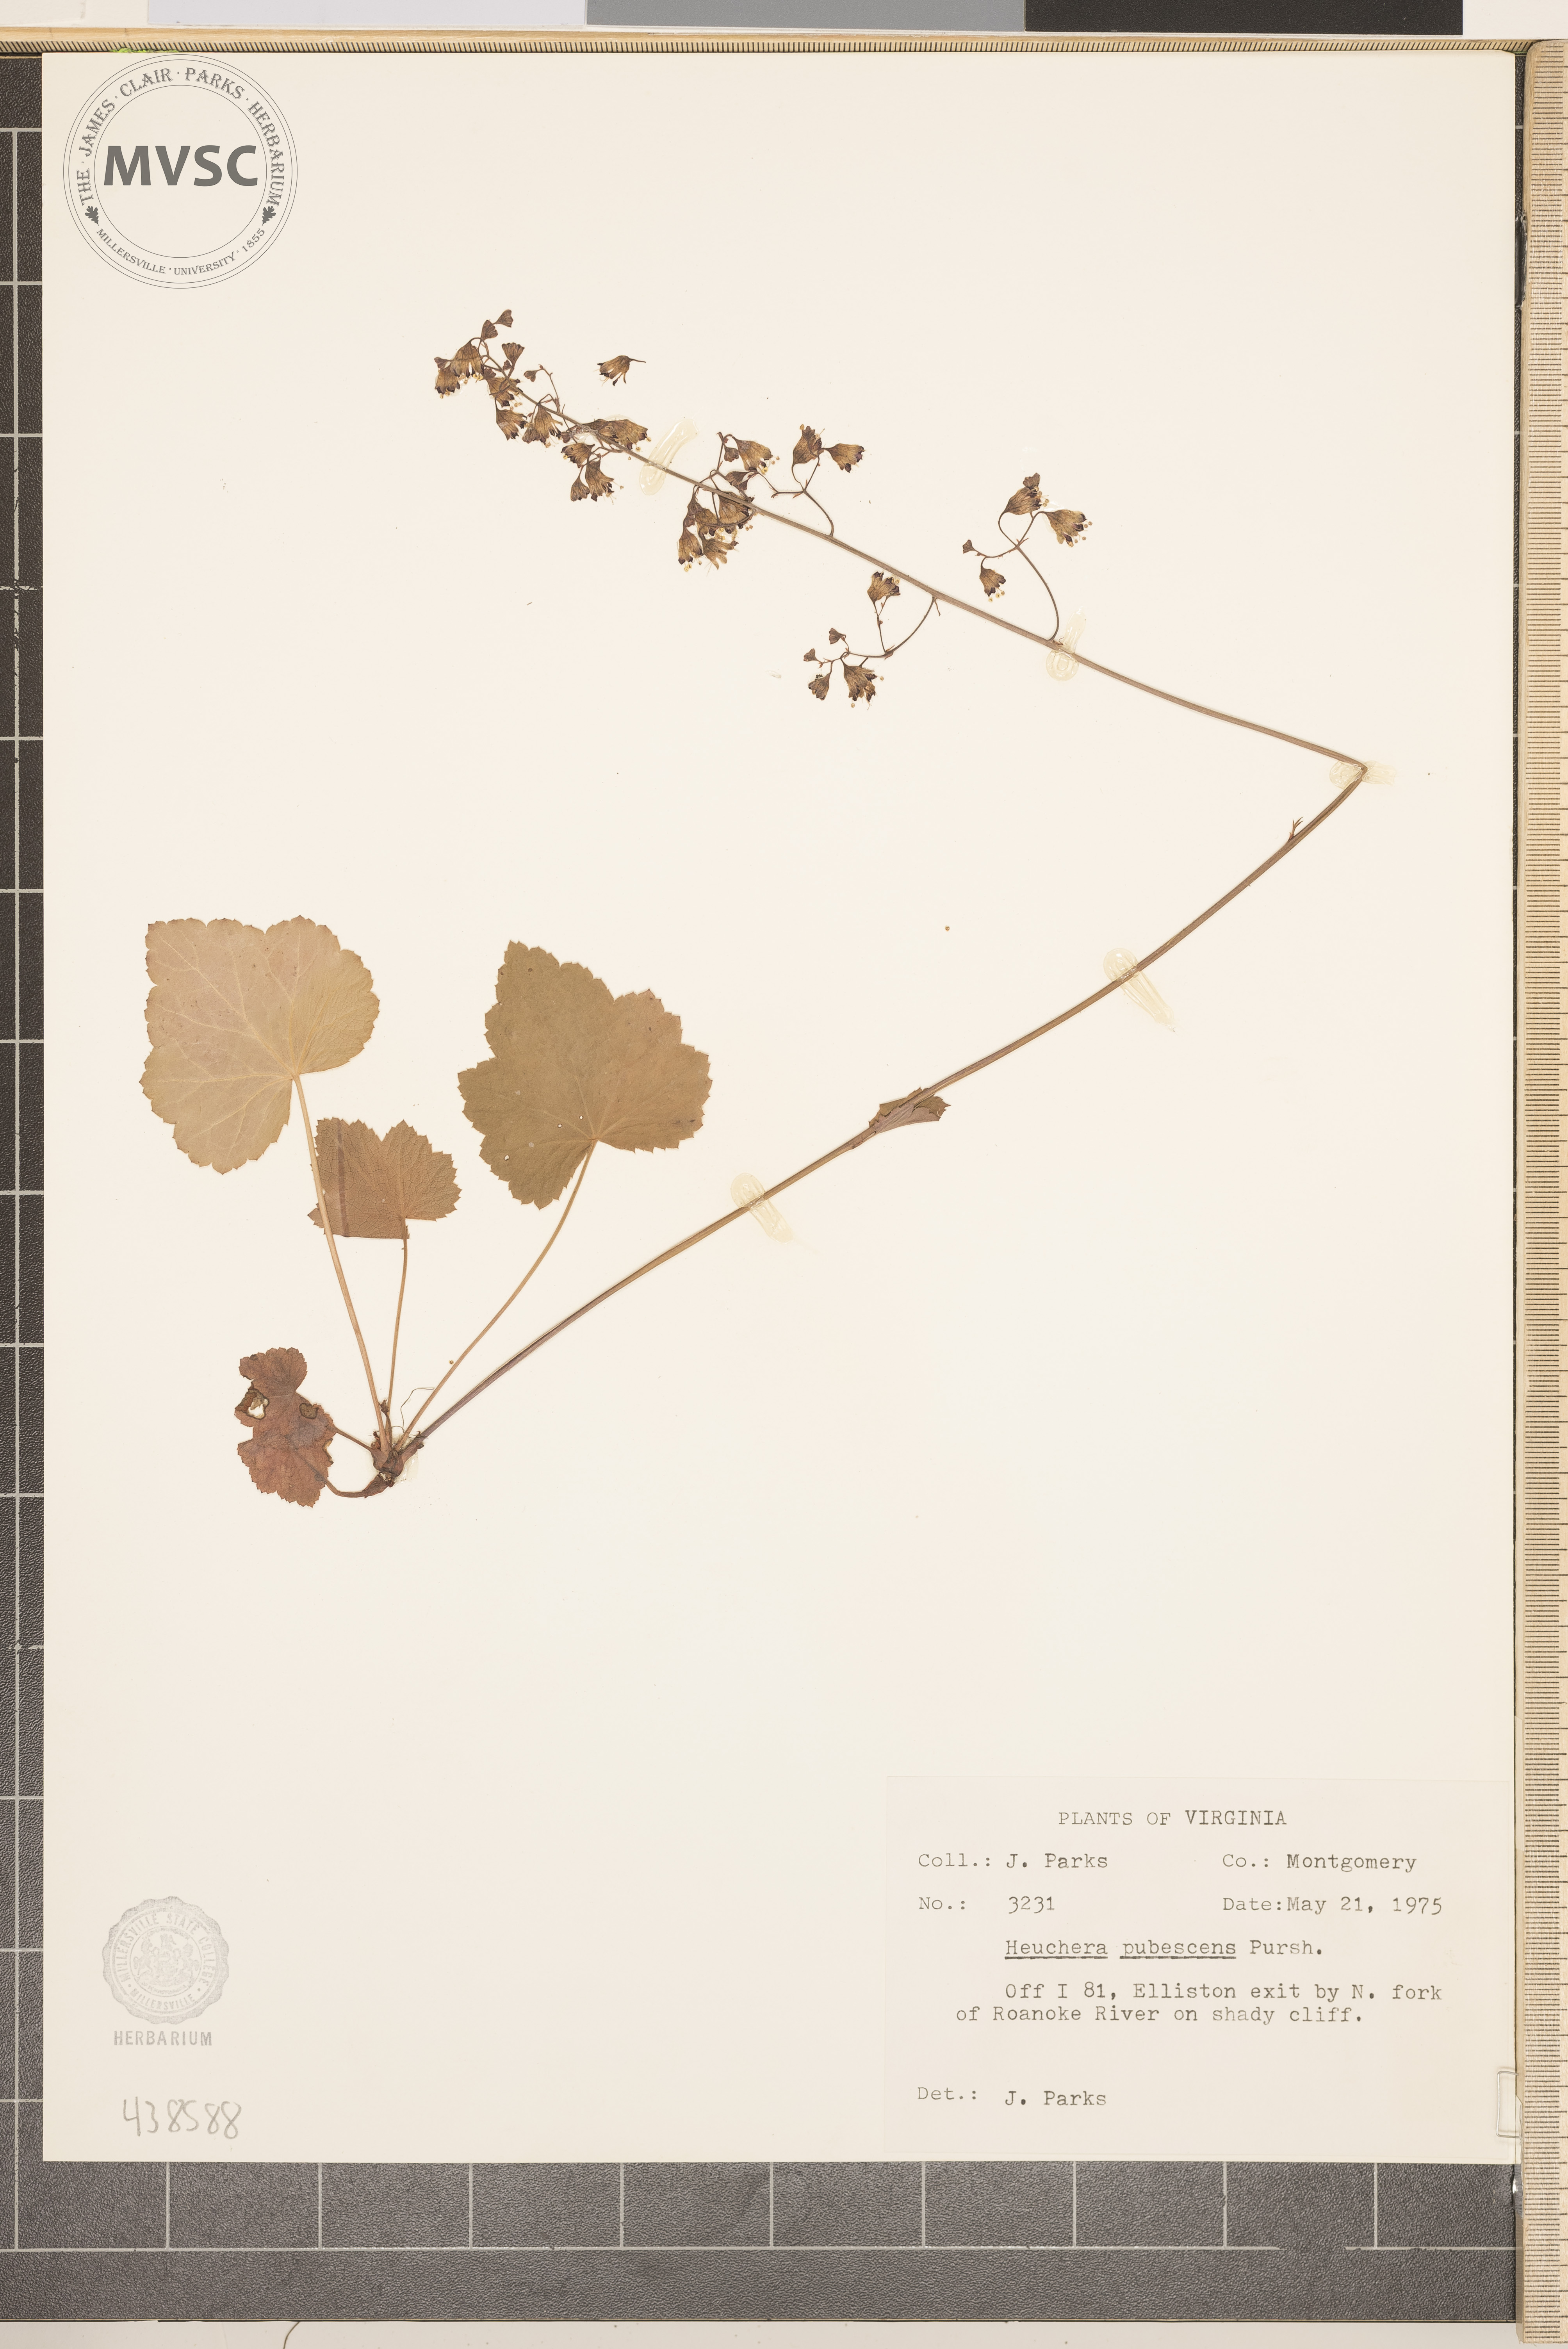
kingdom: Plantae
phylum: Tracheophyta
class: Magnoliopsida
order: Saxifragales
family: Saxifragaceae
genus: Heuchera
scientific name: Heuchera pubescens
